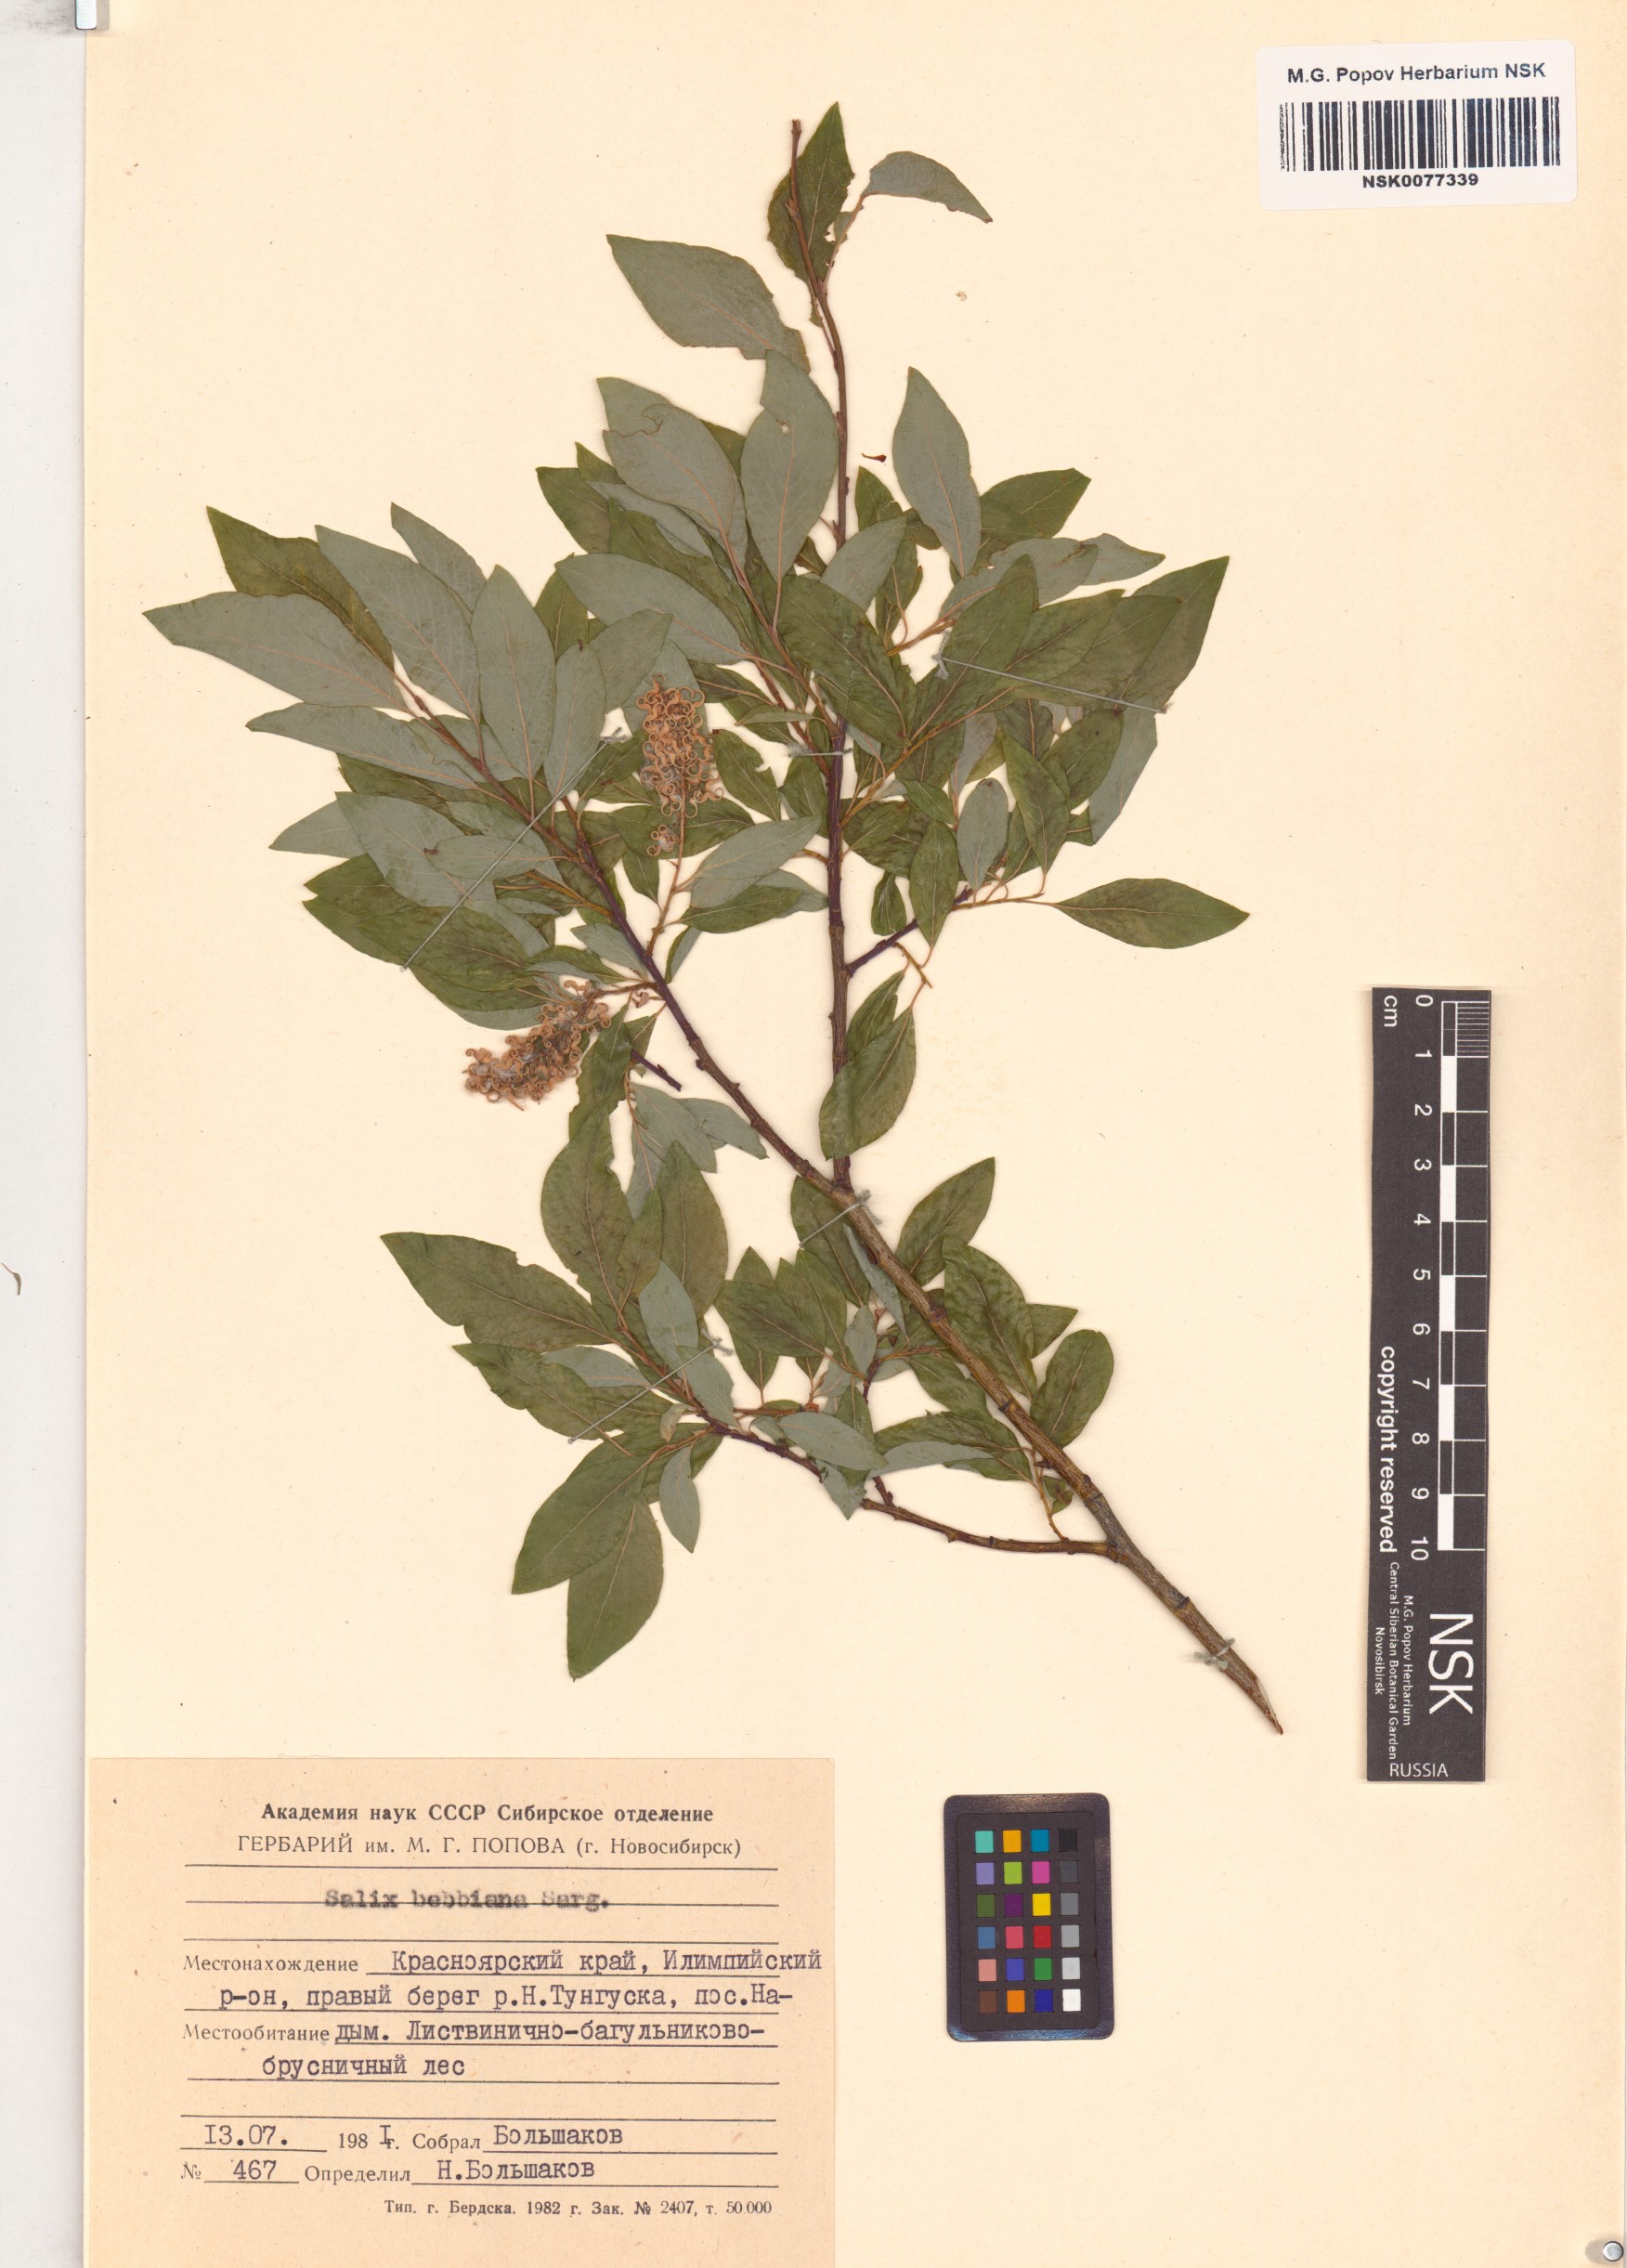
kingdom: Plantae
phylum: Tracheophyta
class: Magnoliopsida
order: Malpighiales
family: Salicaceae
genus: Salix
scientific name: Salix bebbiana
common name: Bebb's willow
